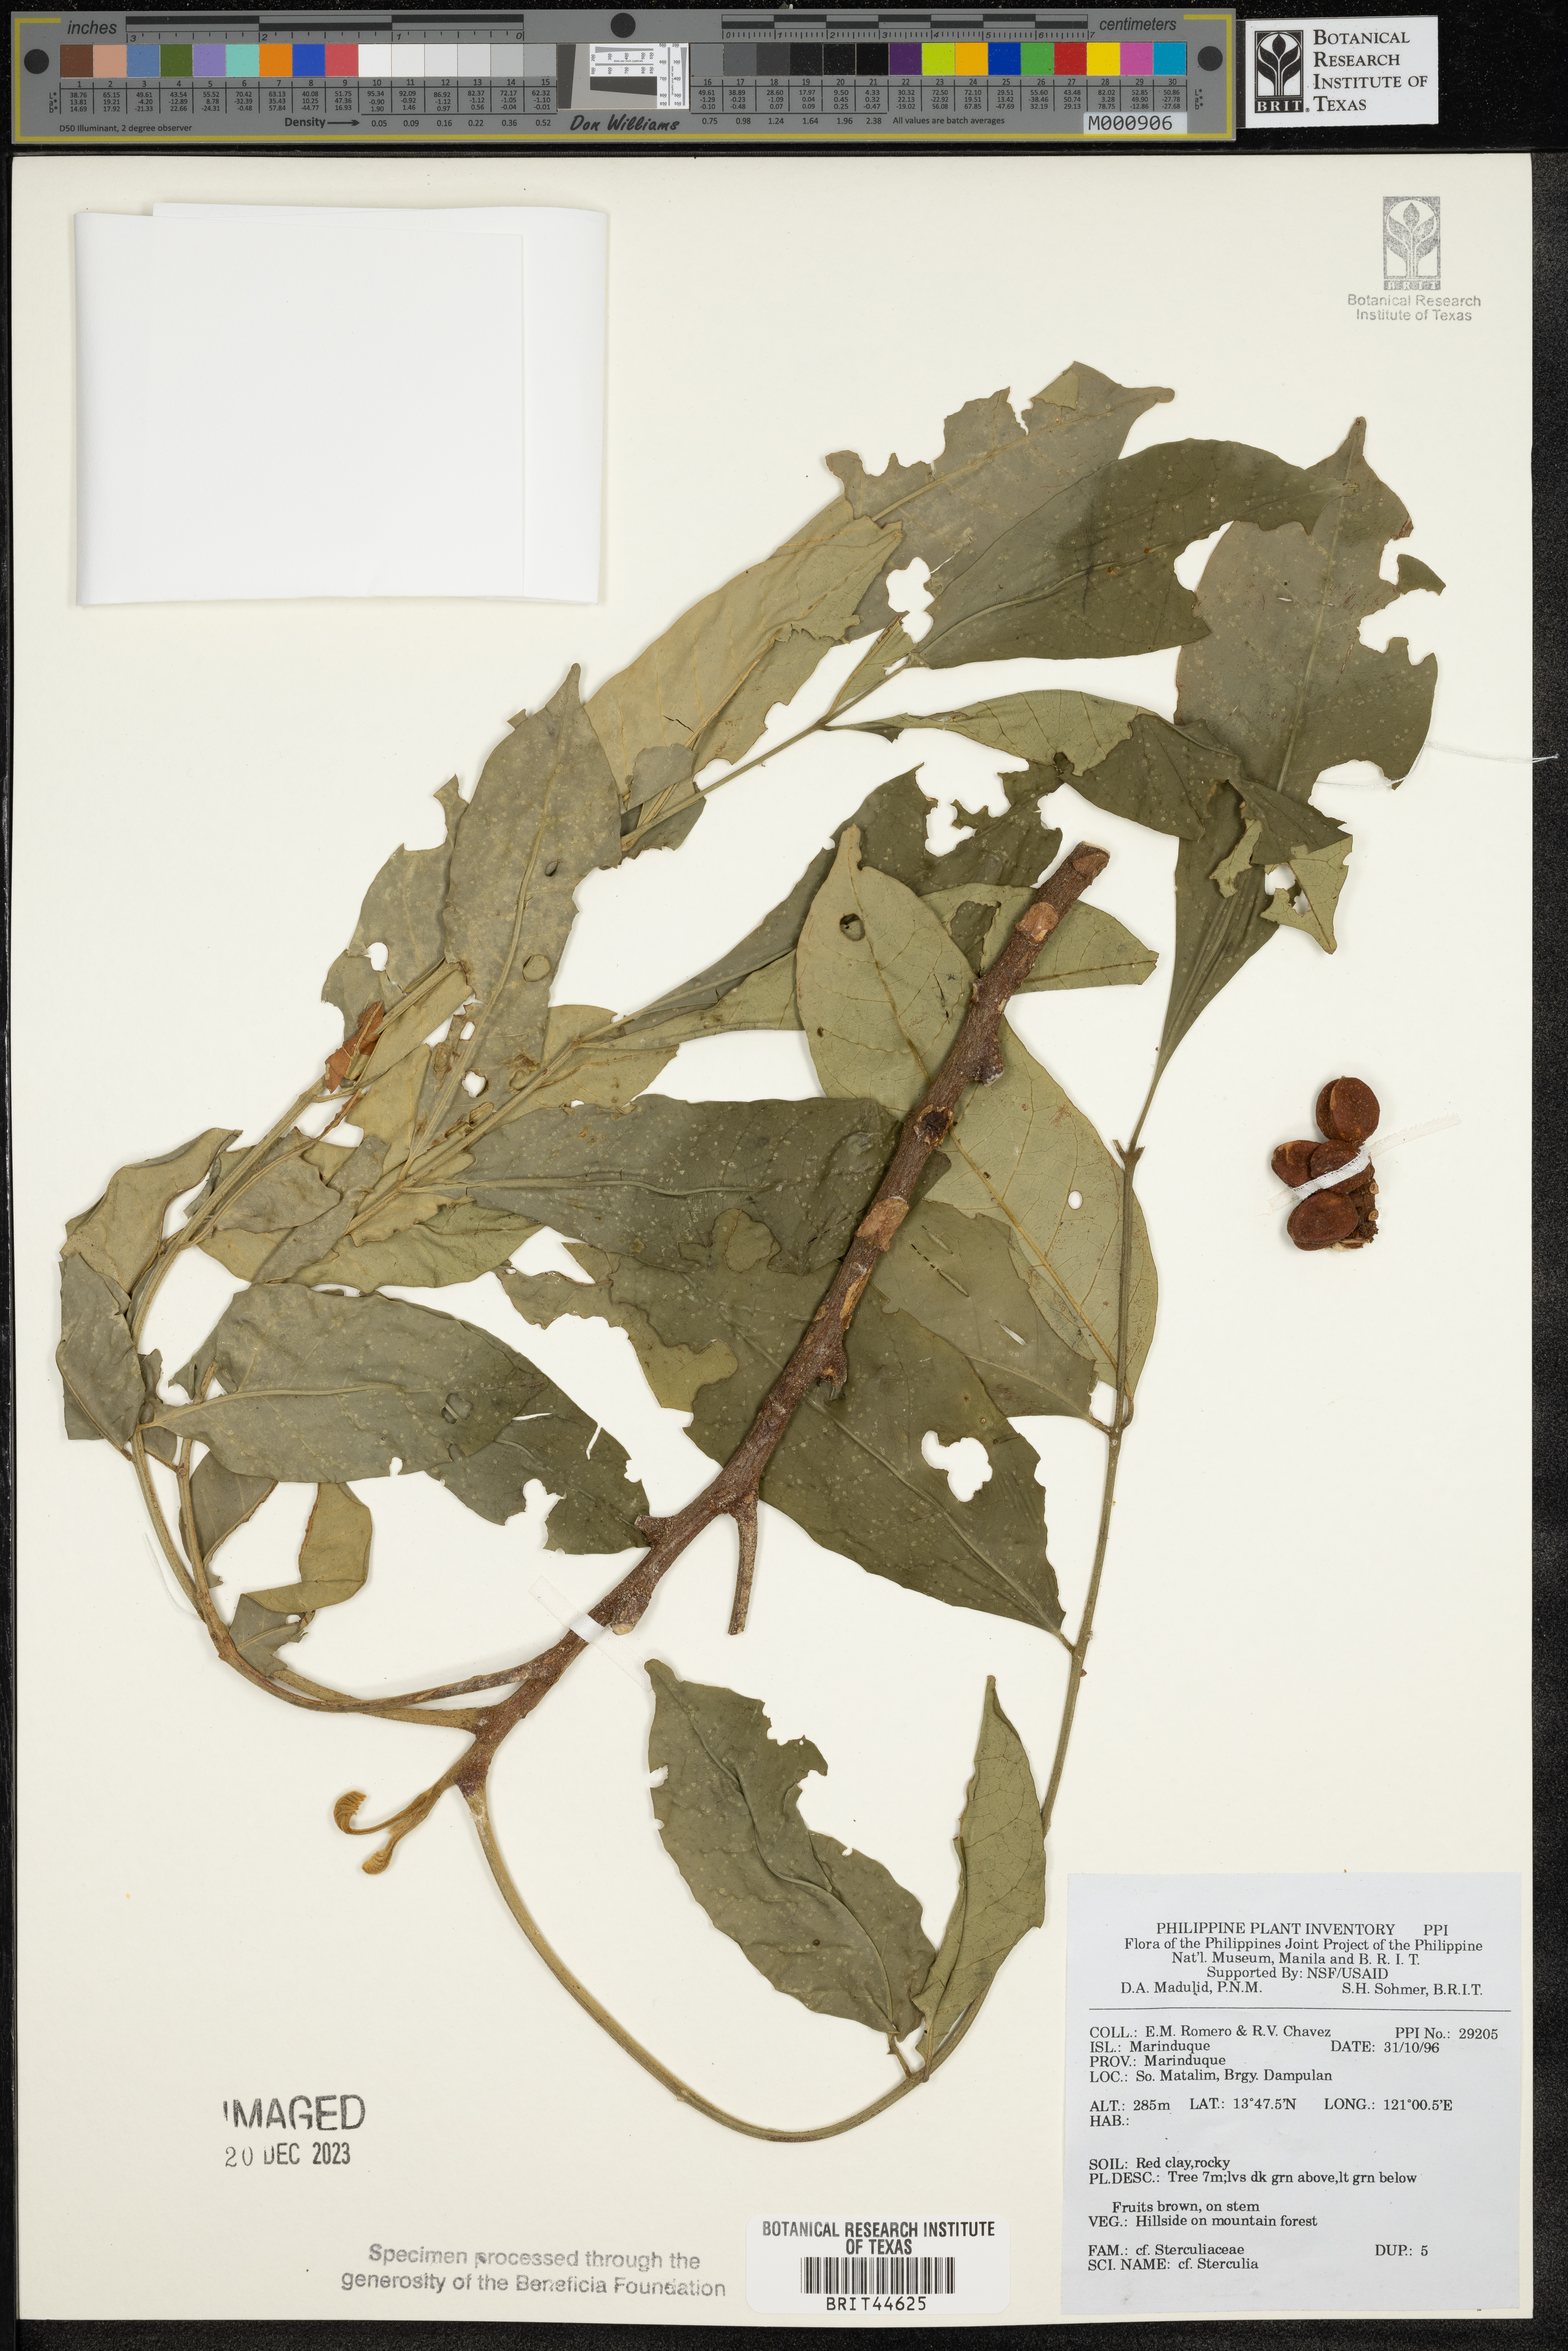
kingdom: Plantae
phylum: Tracheophyta
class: Magnoliopsida
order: Malvales
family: Malvaceae
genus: Sterculia
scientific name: Sterculia
